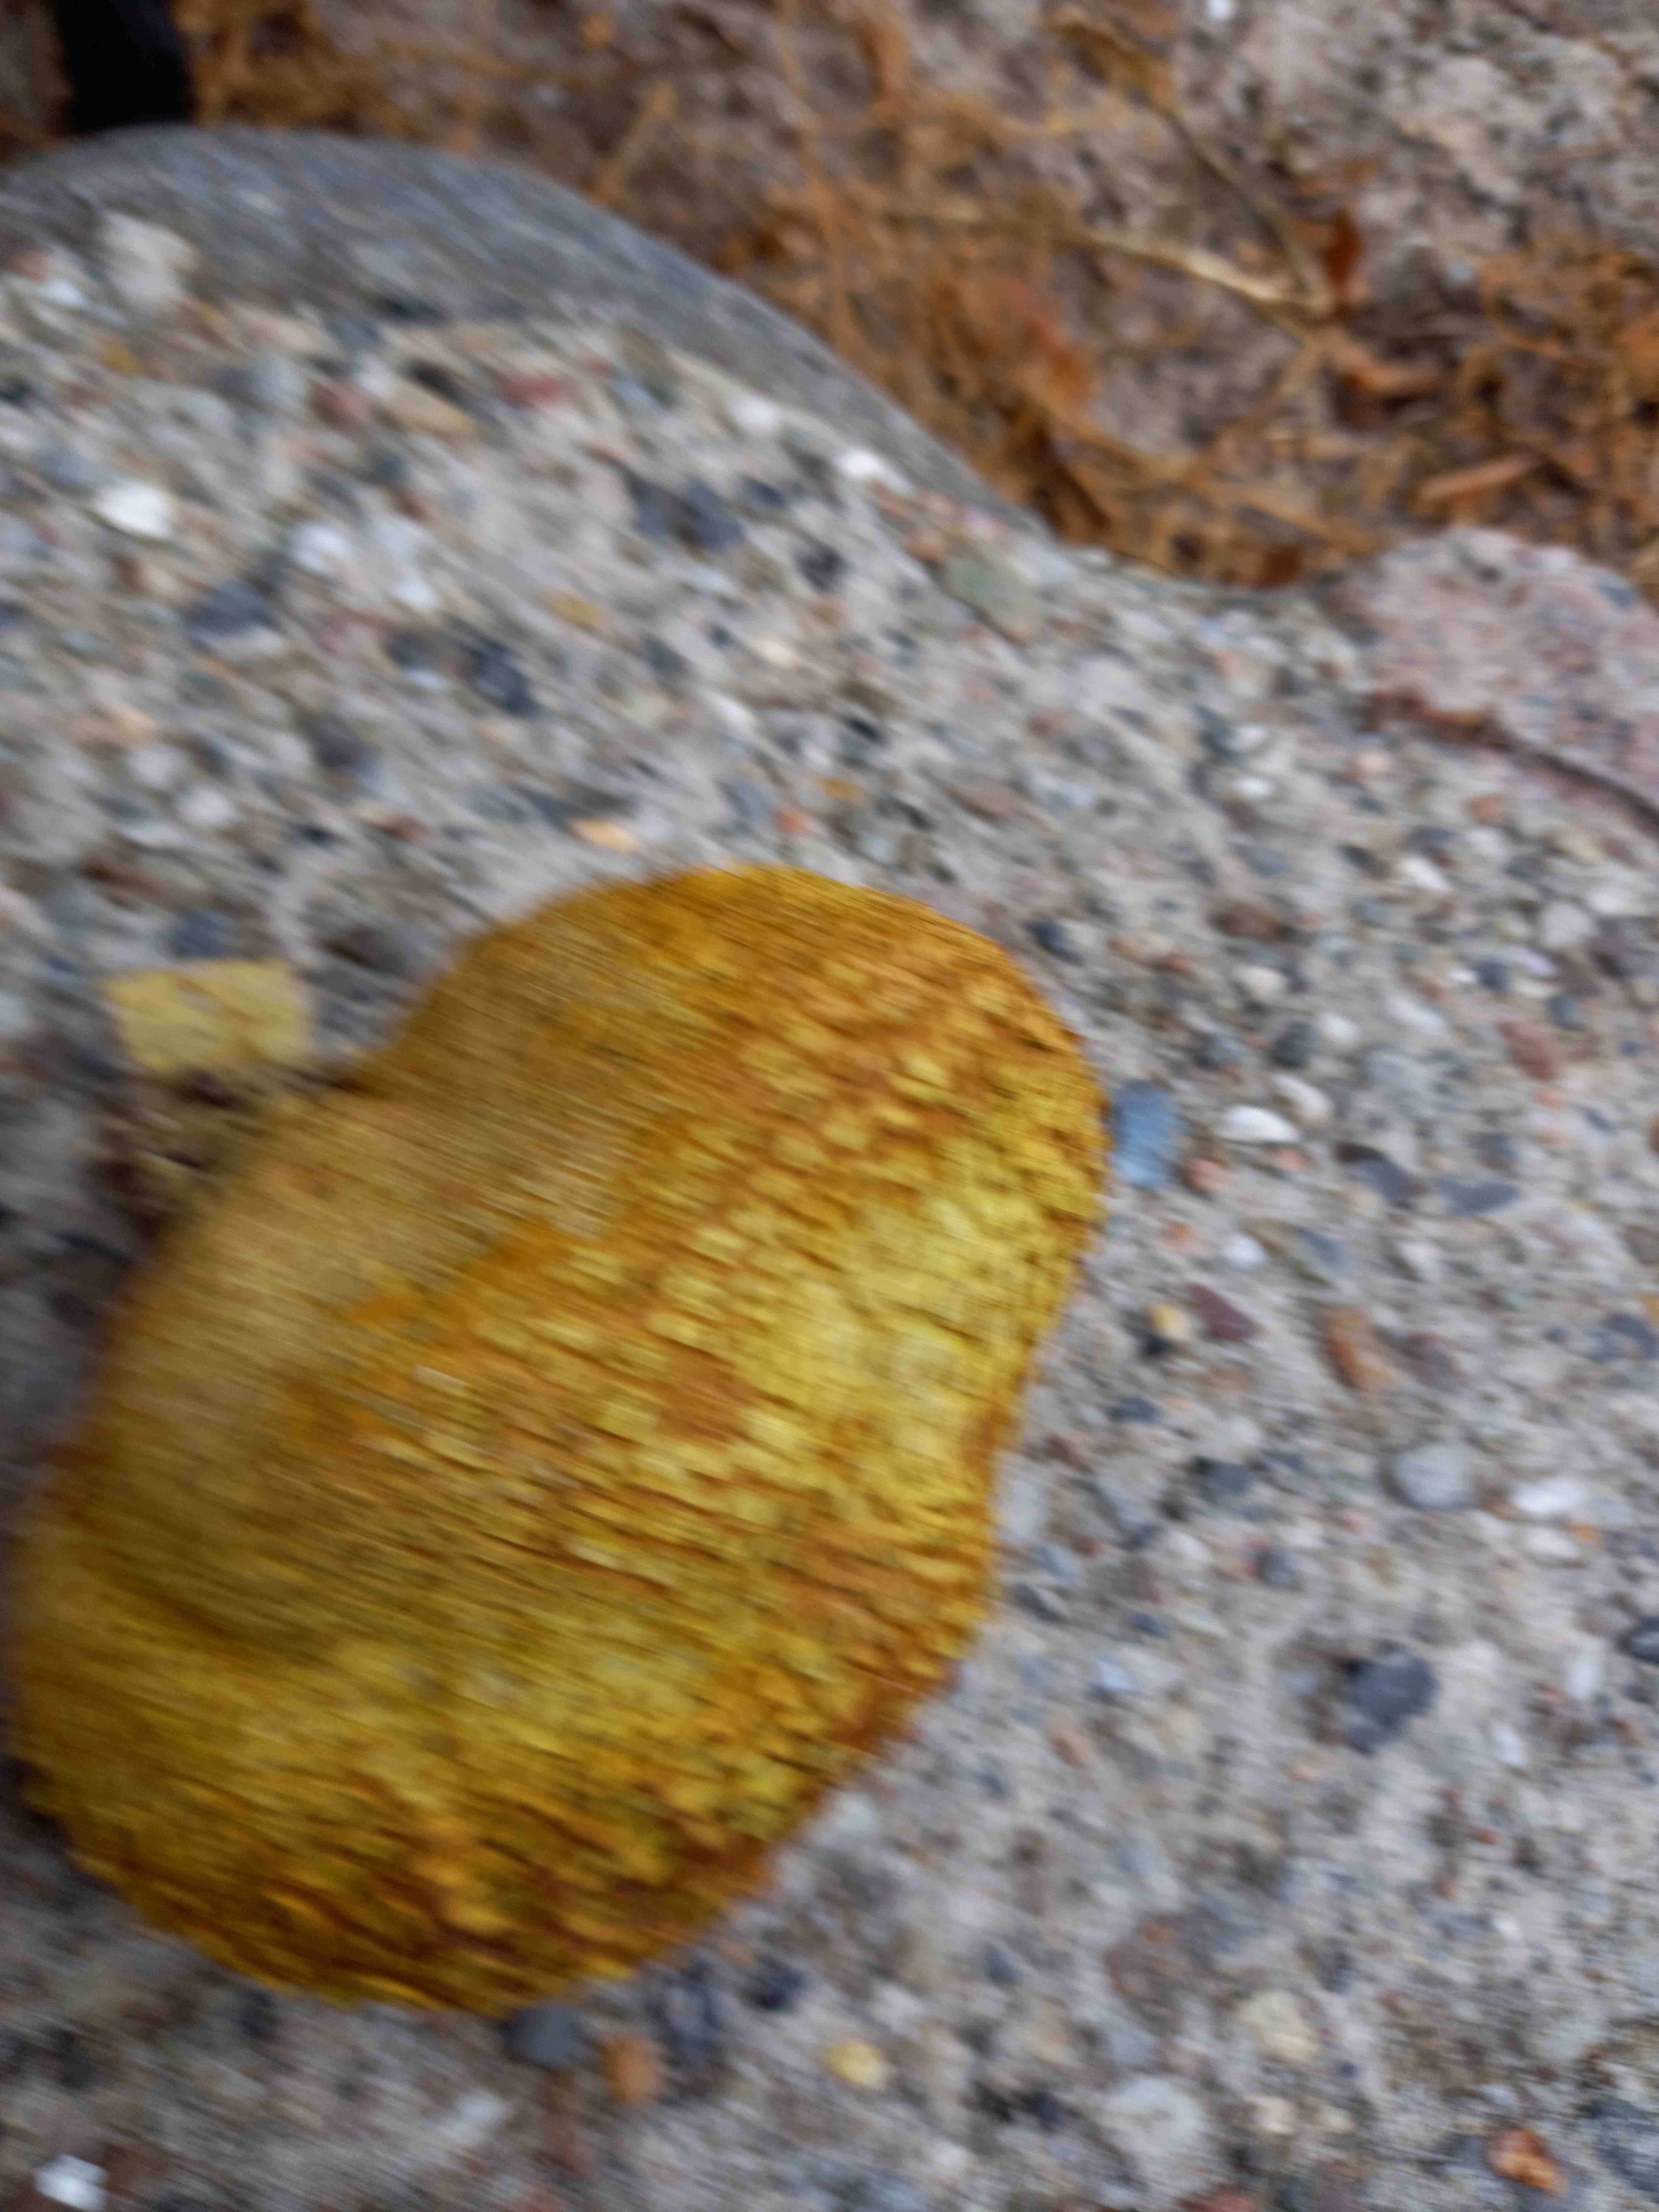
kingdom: Fungi
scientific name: Fungi
